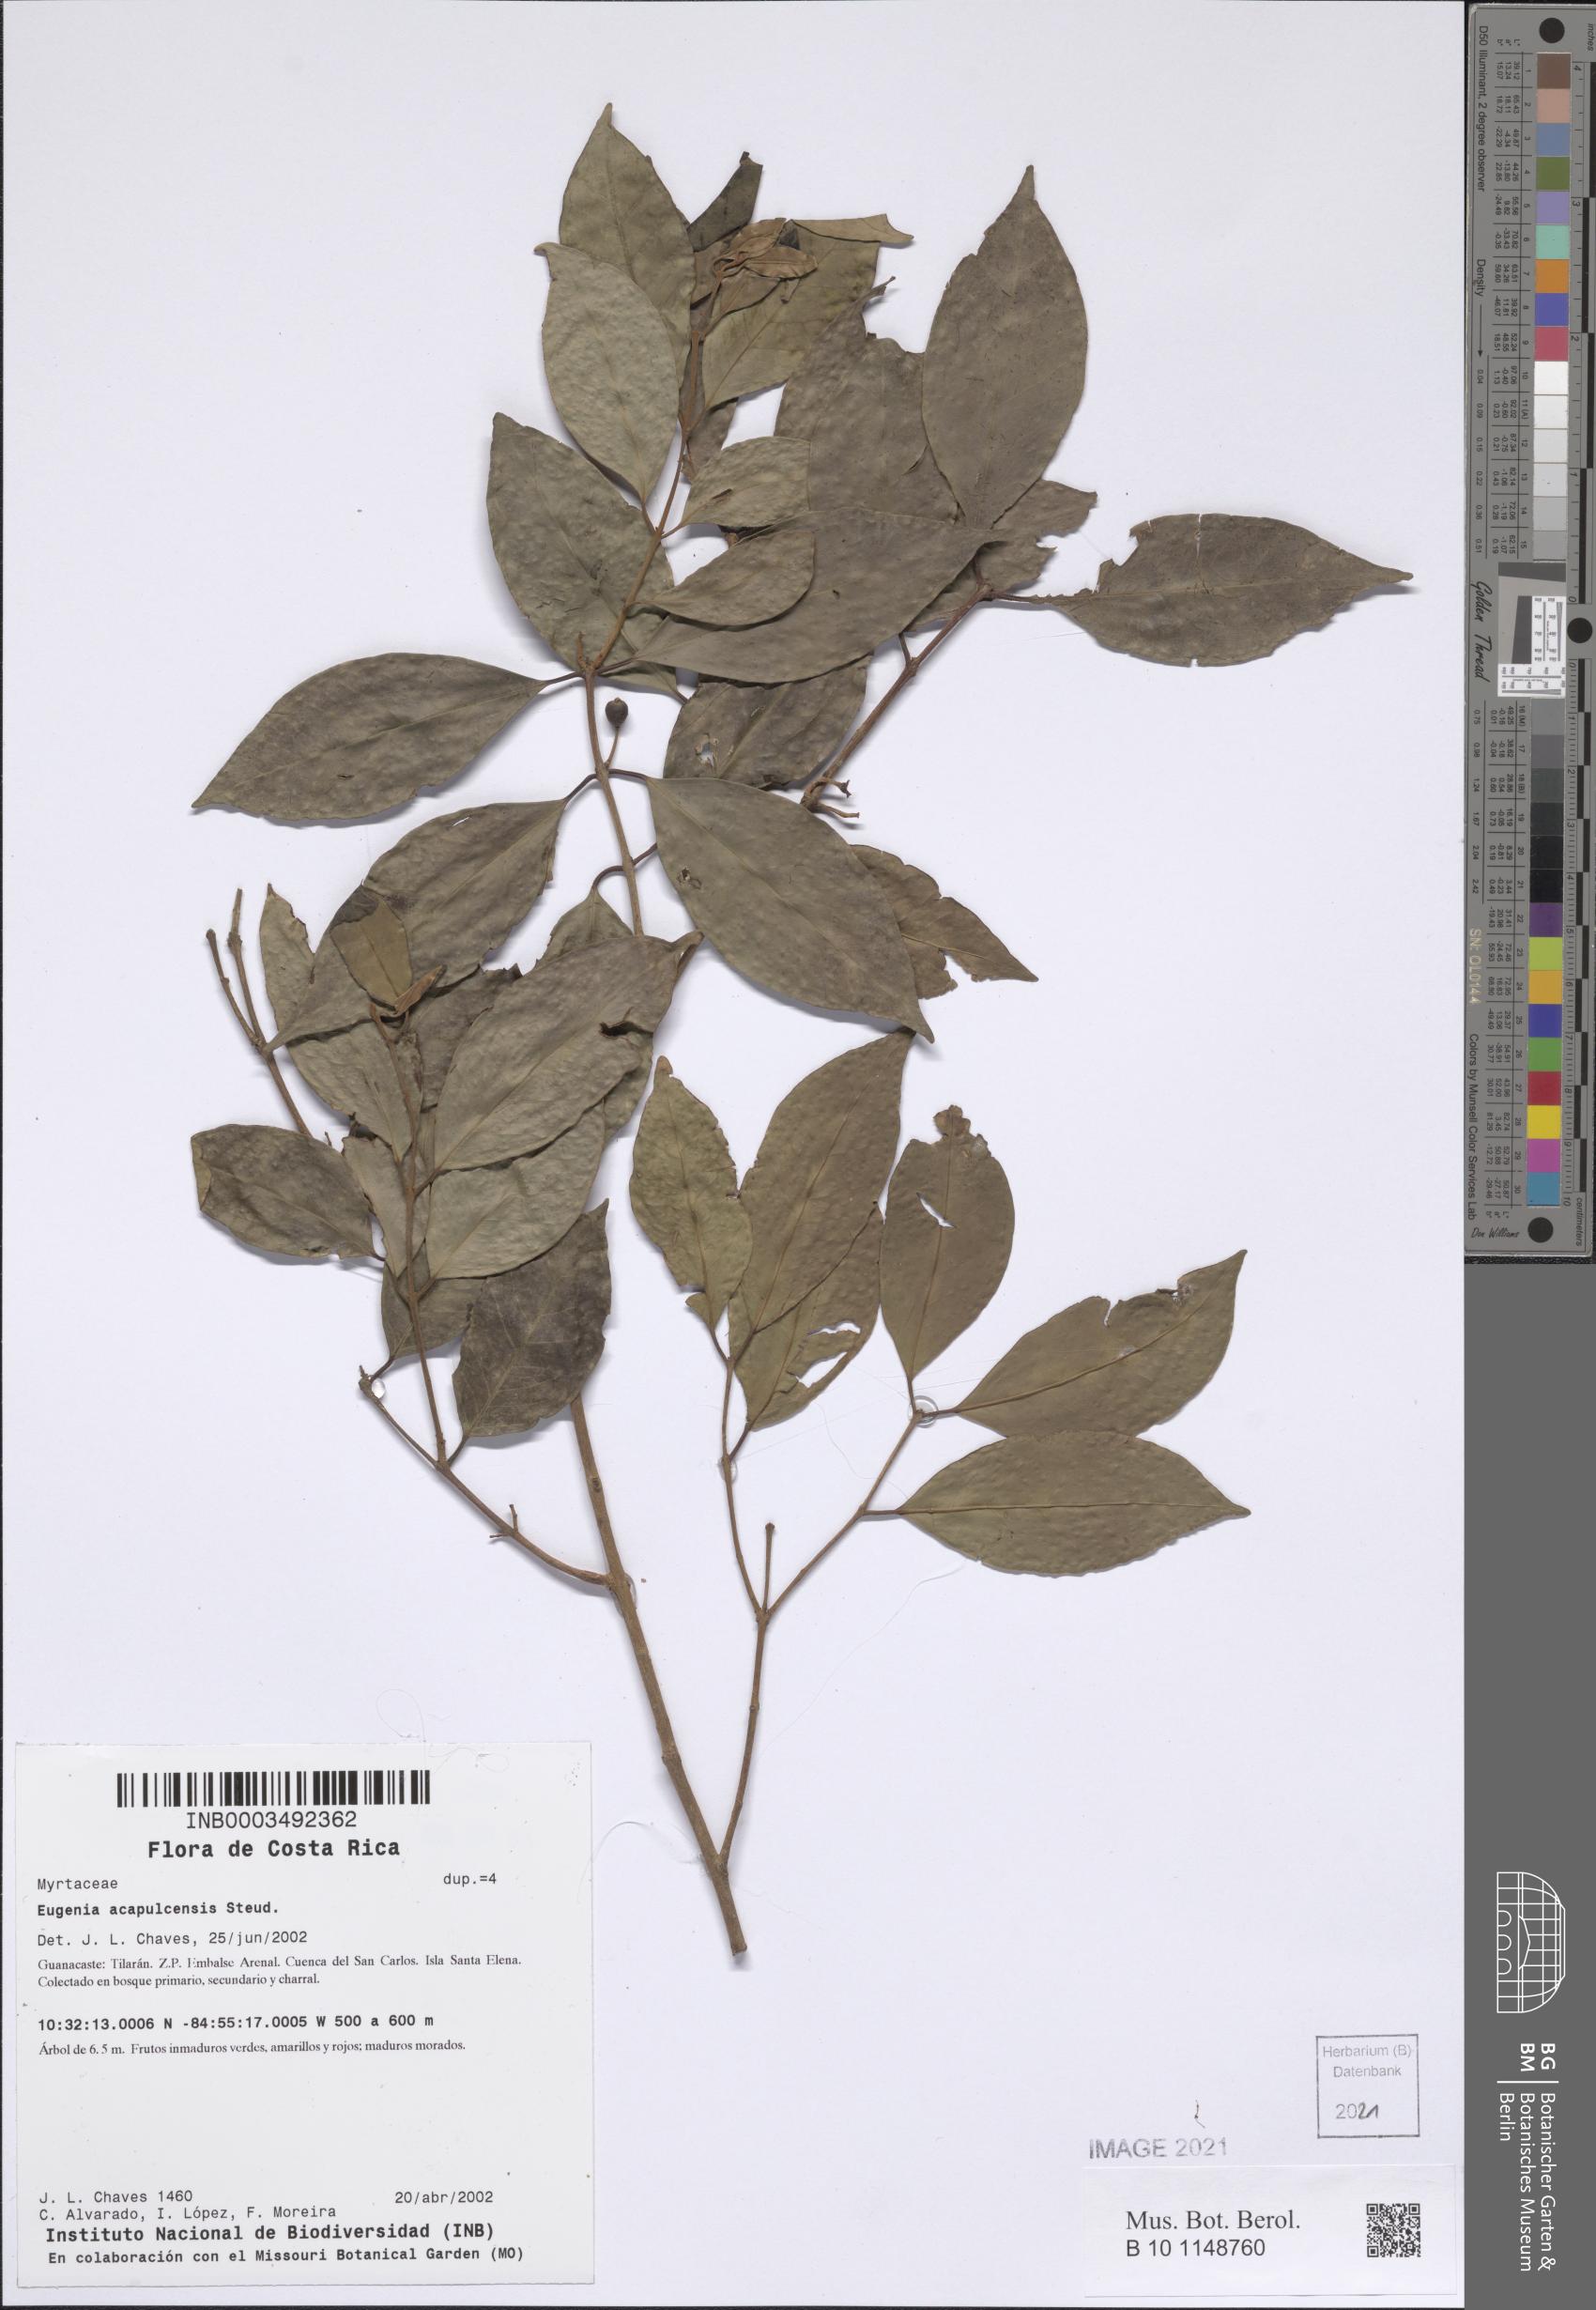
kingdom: Plantae
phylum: Tracheophyta
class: Magnoliopsida
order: Myrtales
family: Myrtaceae
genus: Eugenia
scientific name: Eugenia acapulcensis
